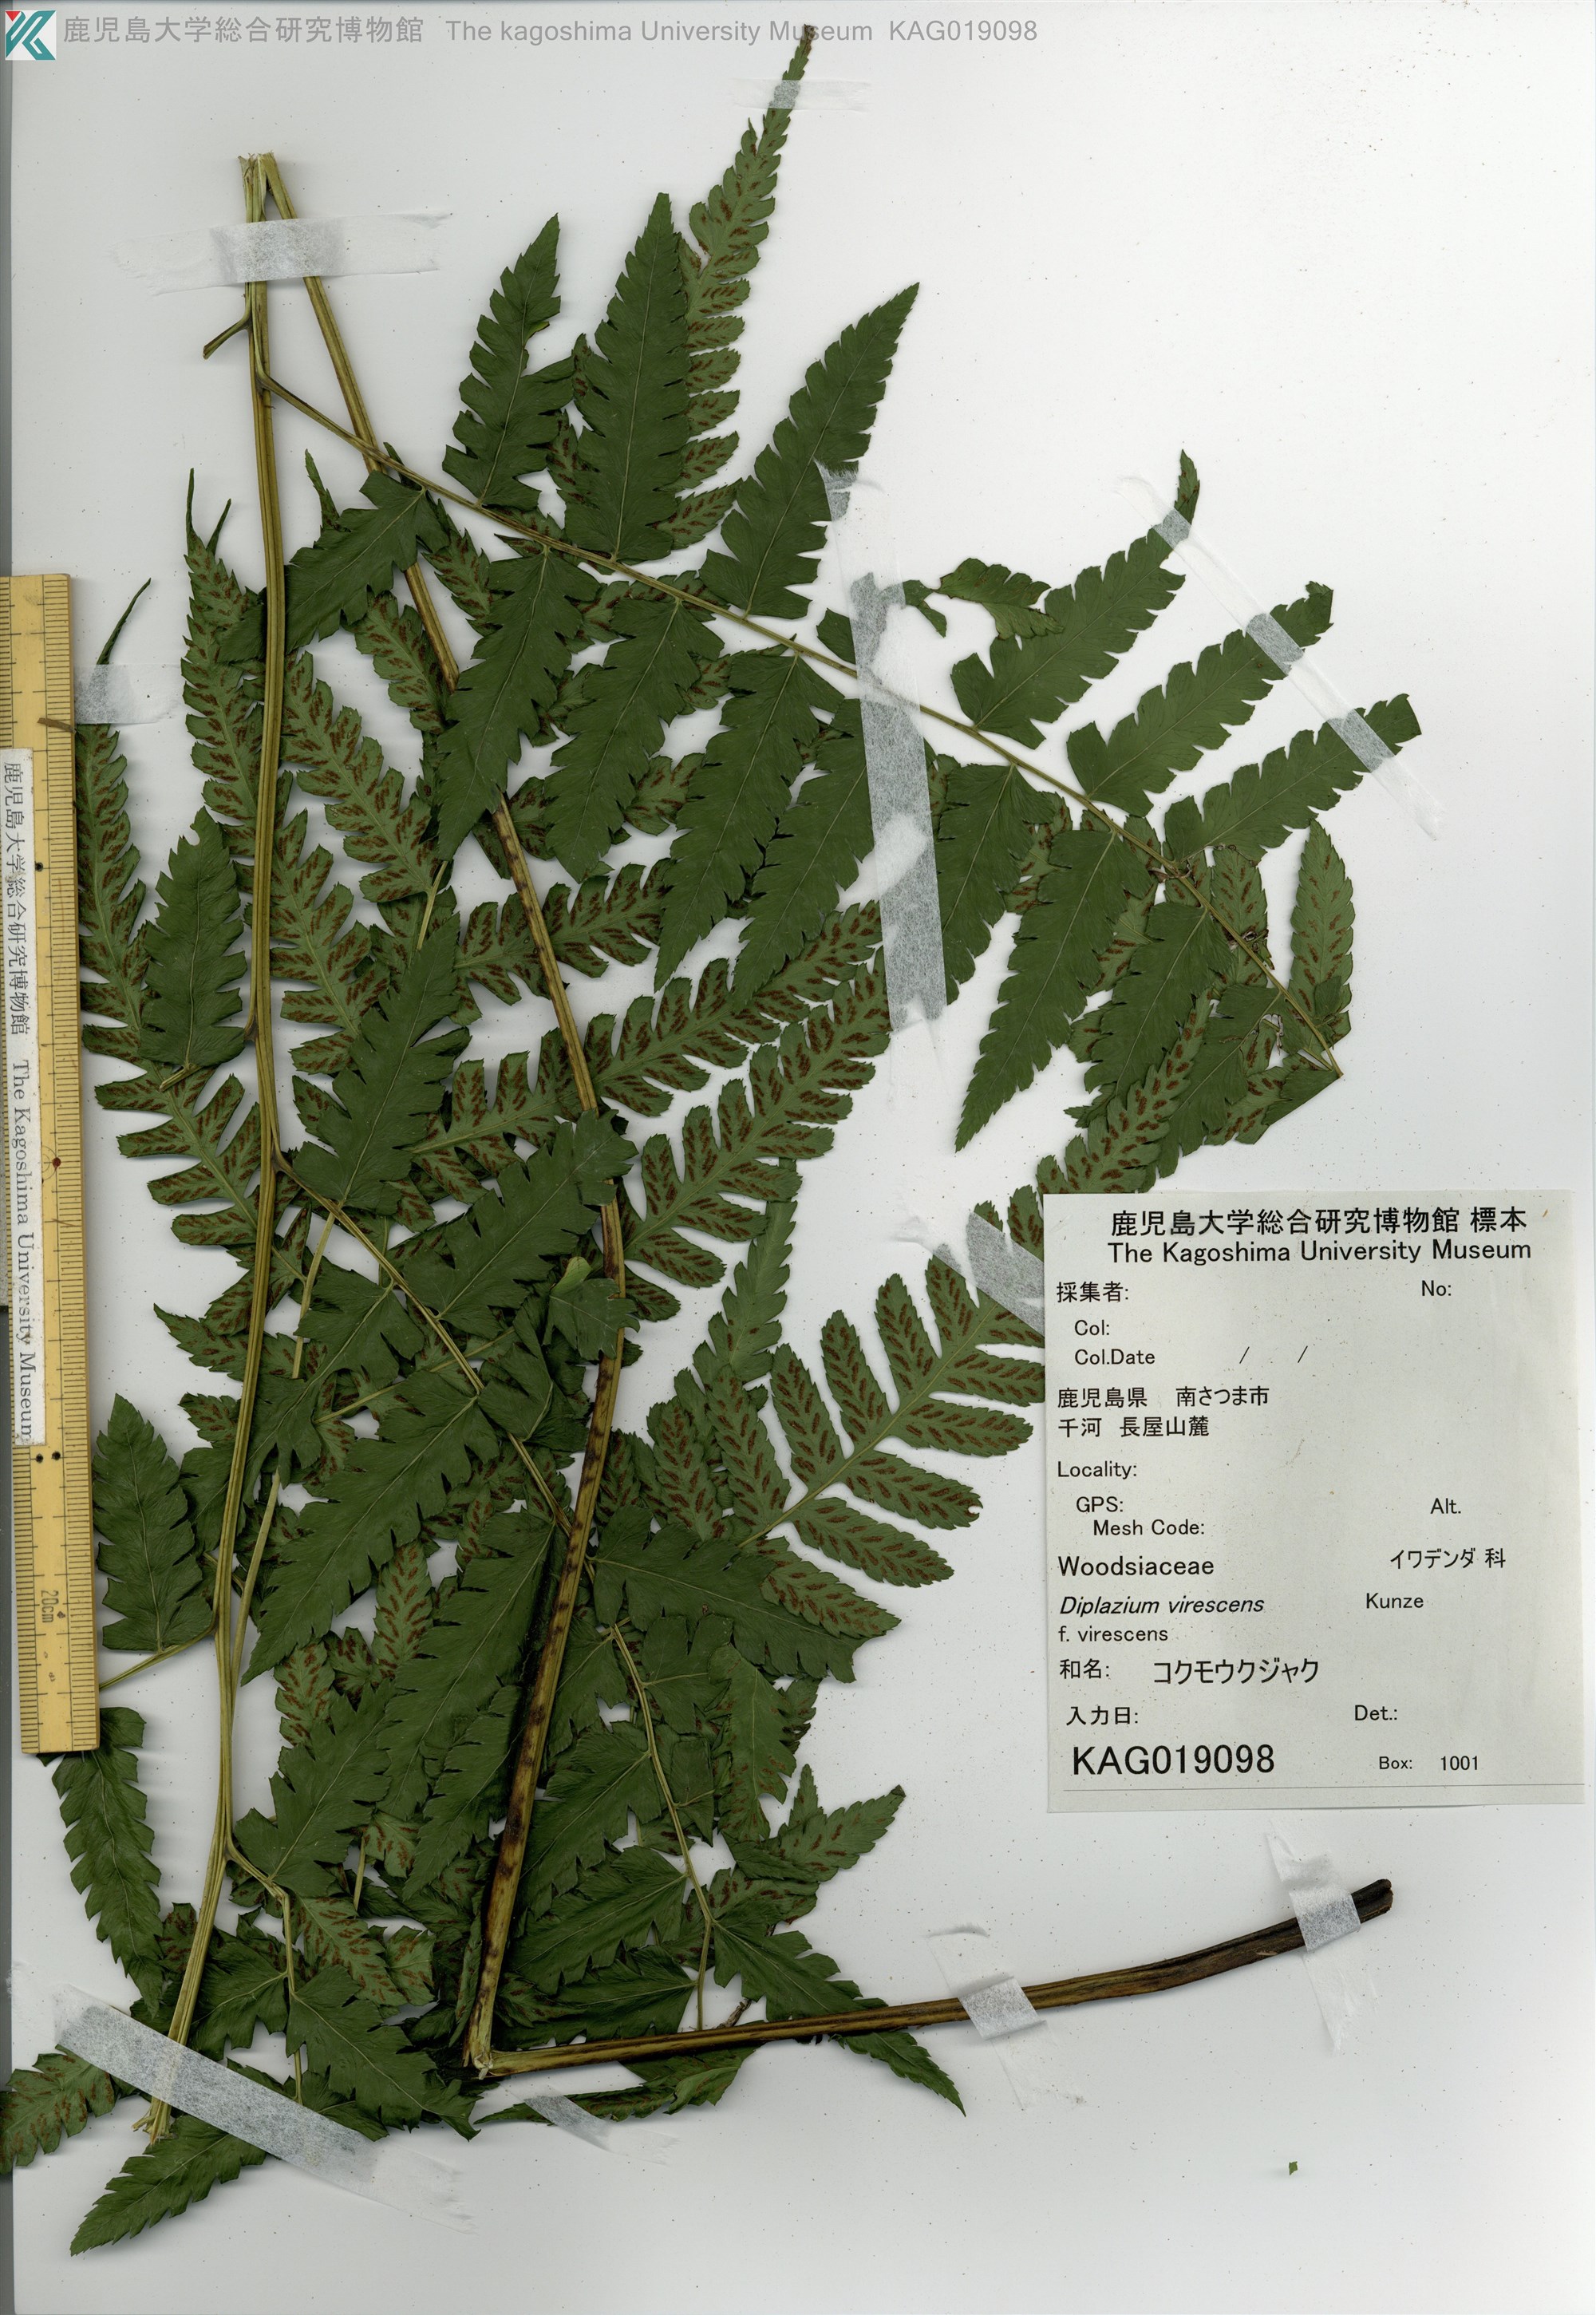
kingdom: Plantae
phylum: Tracheophyta
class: Polypodiopsida
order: Polypodiales
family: Athyriaceae
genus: Diplazium
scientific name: Diplazium
